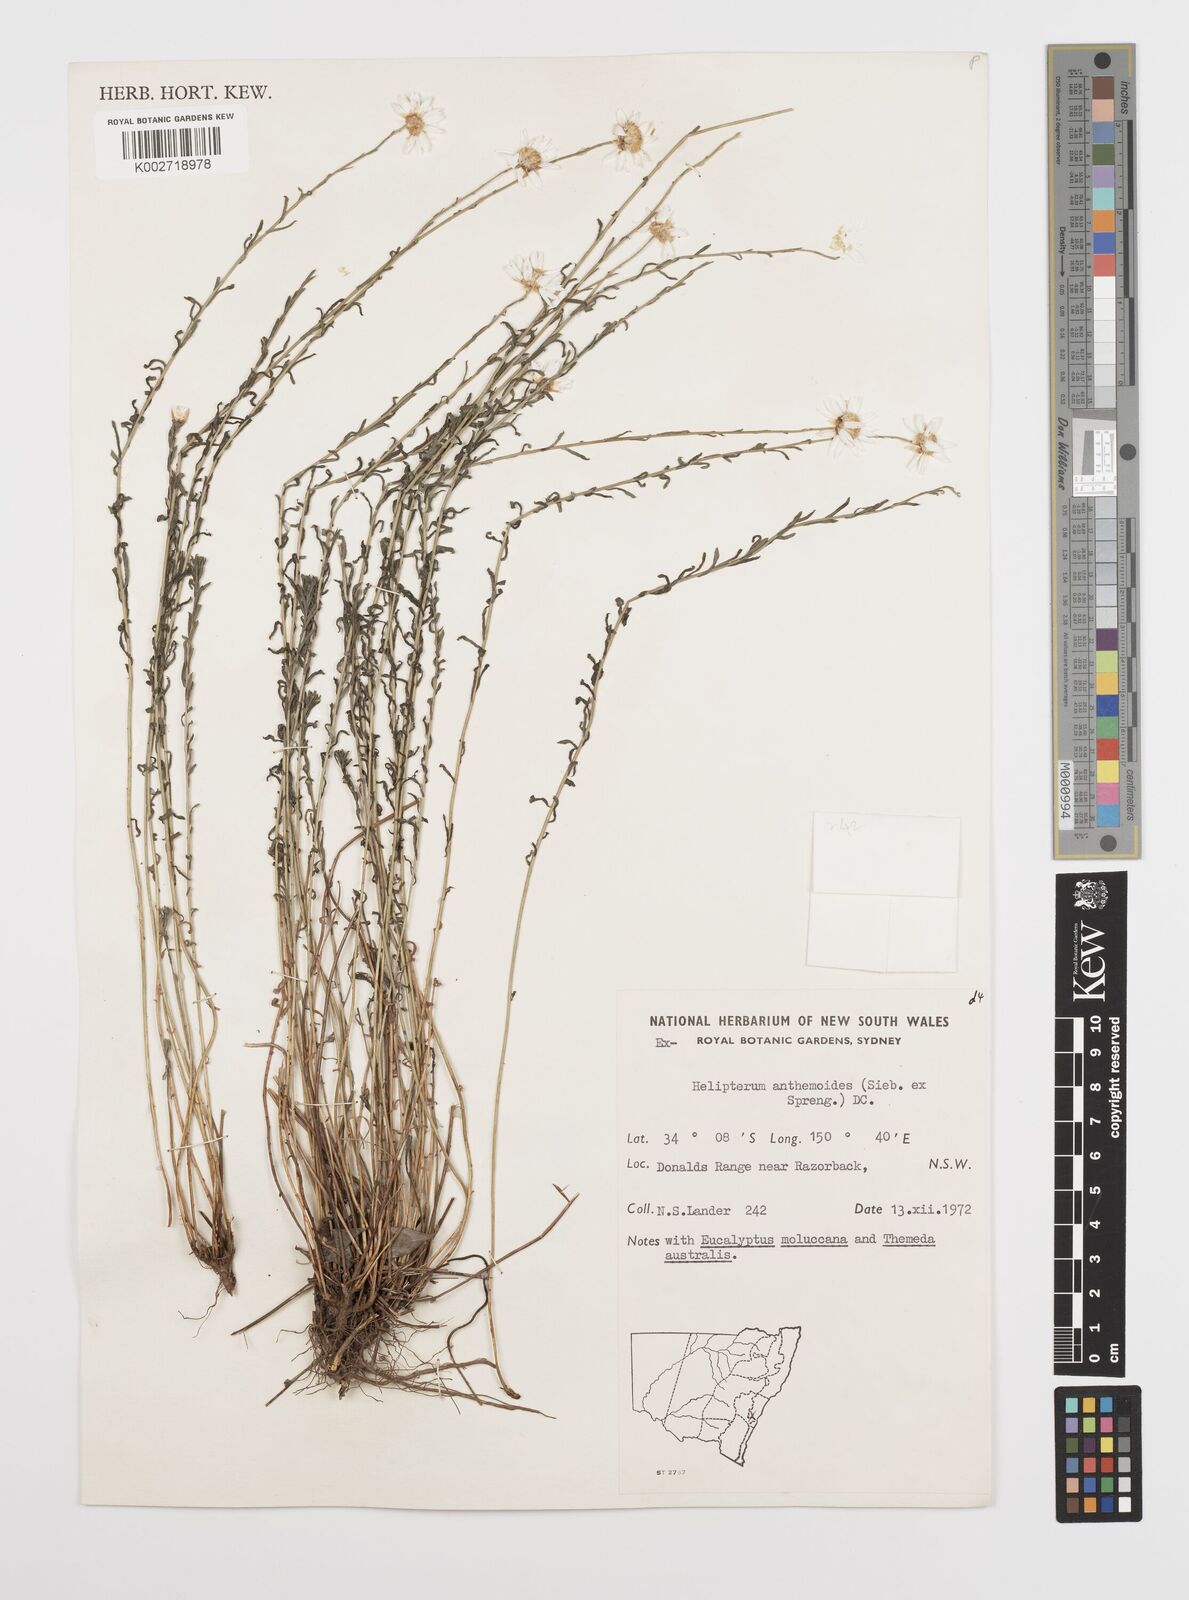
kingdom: Plantae
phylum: Tracheophyta
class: Magnoliopsida
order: Asterales
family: Asteraceae
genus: Rhodanthe
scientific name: Rhodanthe anthemoides
